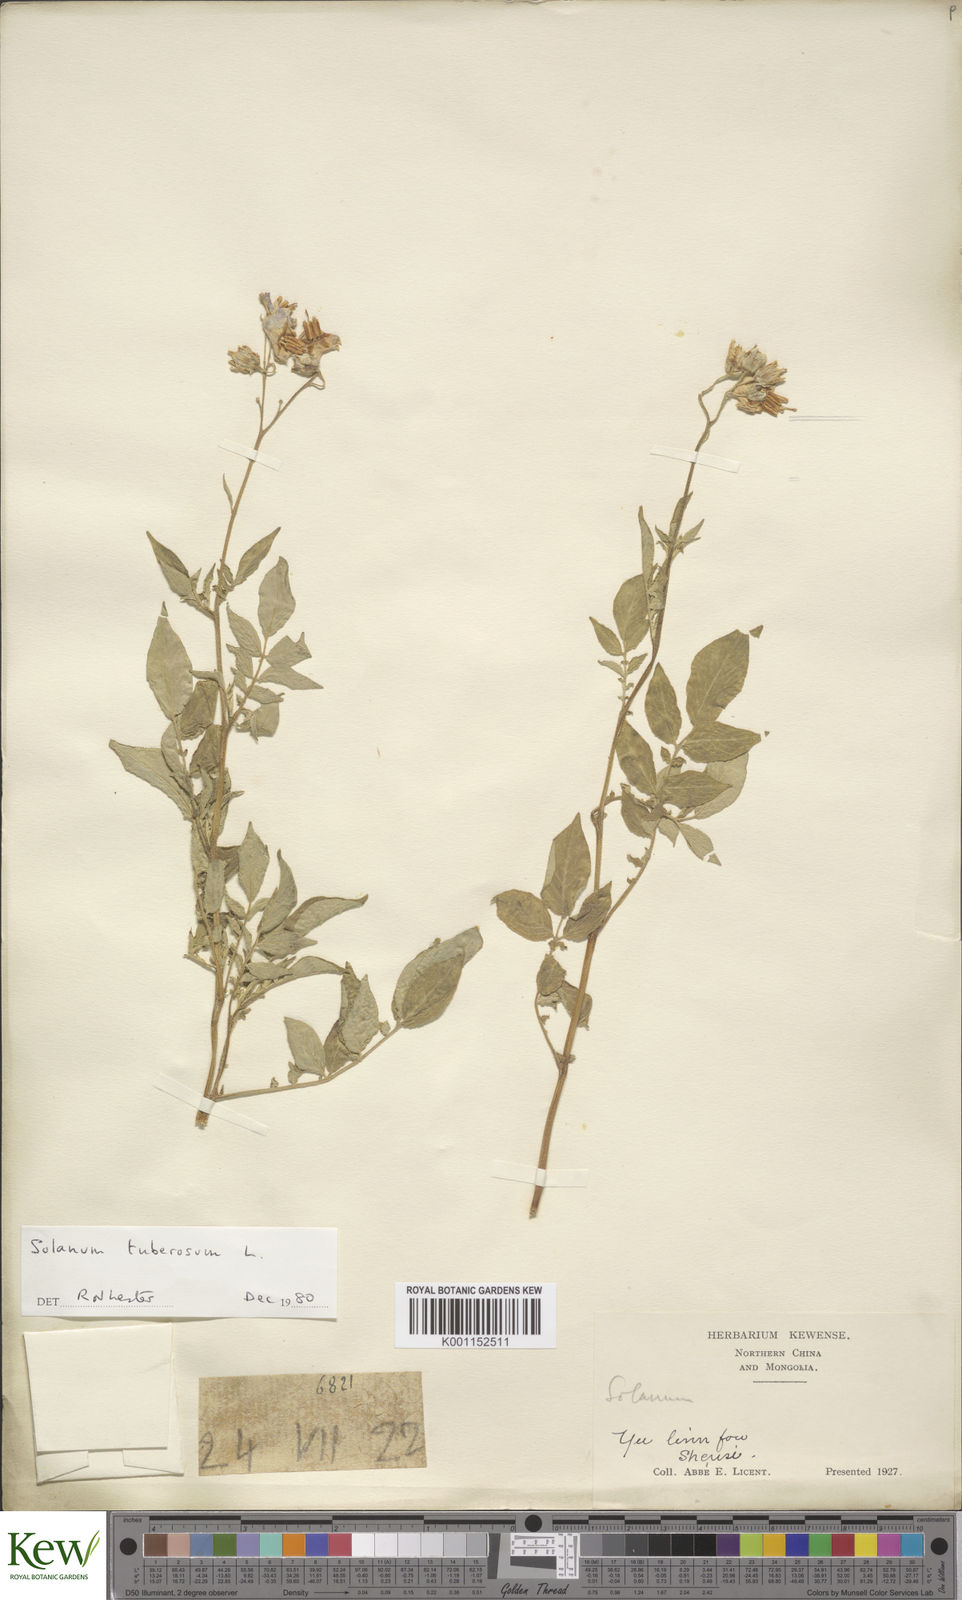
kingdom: Plantae
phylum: Tracheophyta
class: Magnoliopsida
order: Solanales
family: Solanaceae
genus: Solanum
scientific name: Solanum tuberosum
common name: Potato
